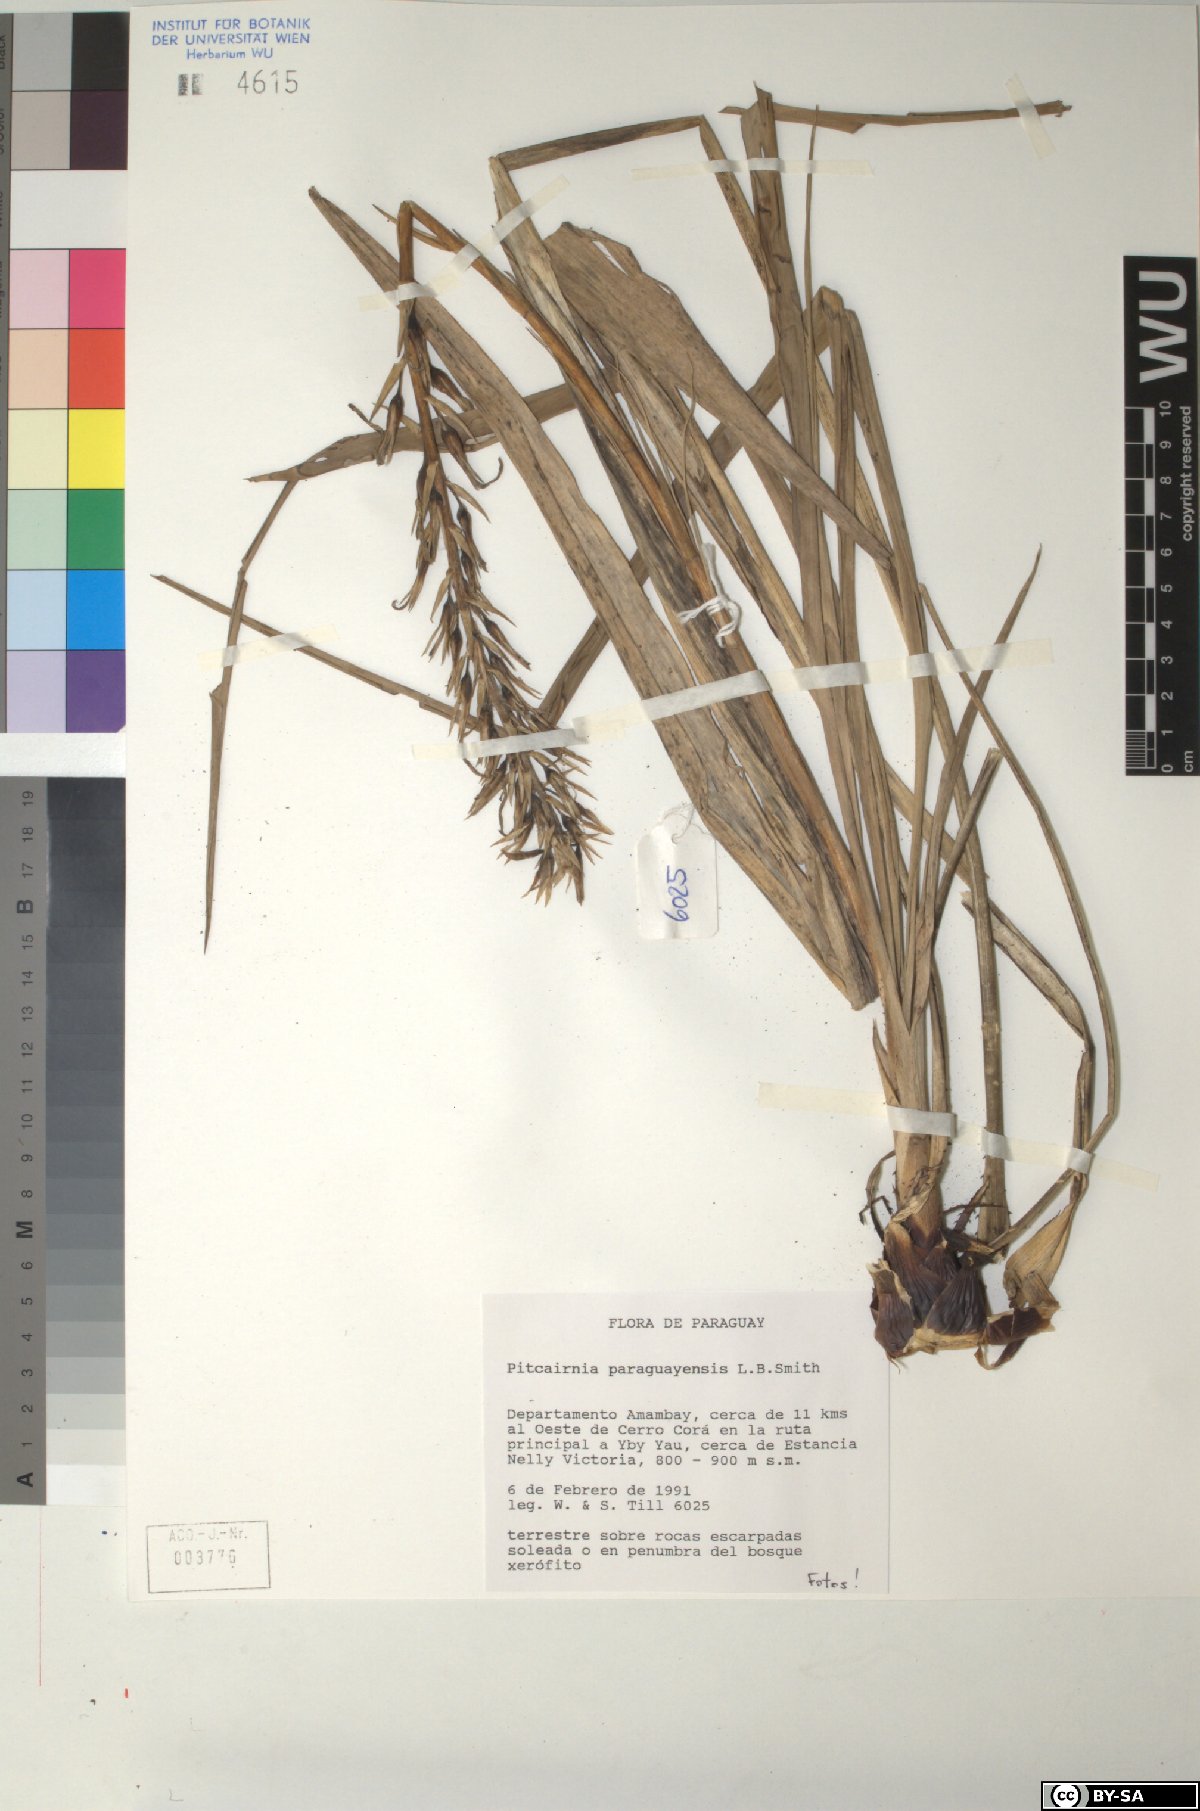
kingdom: Plantae
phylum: Tracheophyta
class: Liliopsida
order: Poales
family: Bromeliaceae
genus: Pitcairnia
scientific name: Pitcairnia paraguayensis
